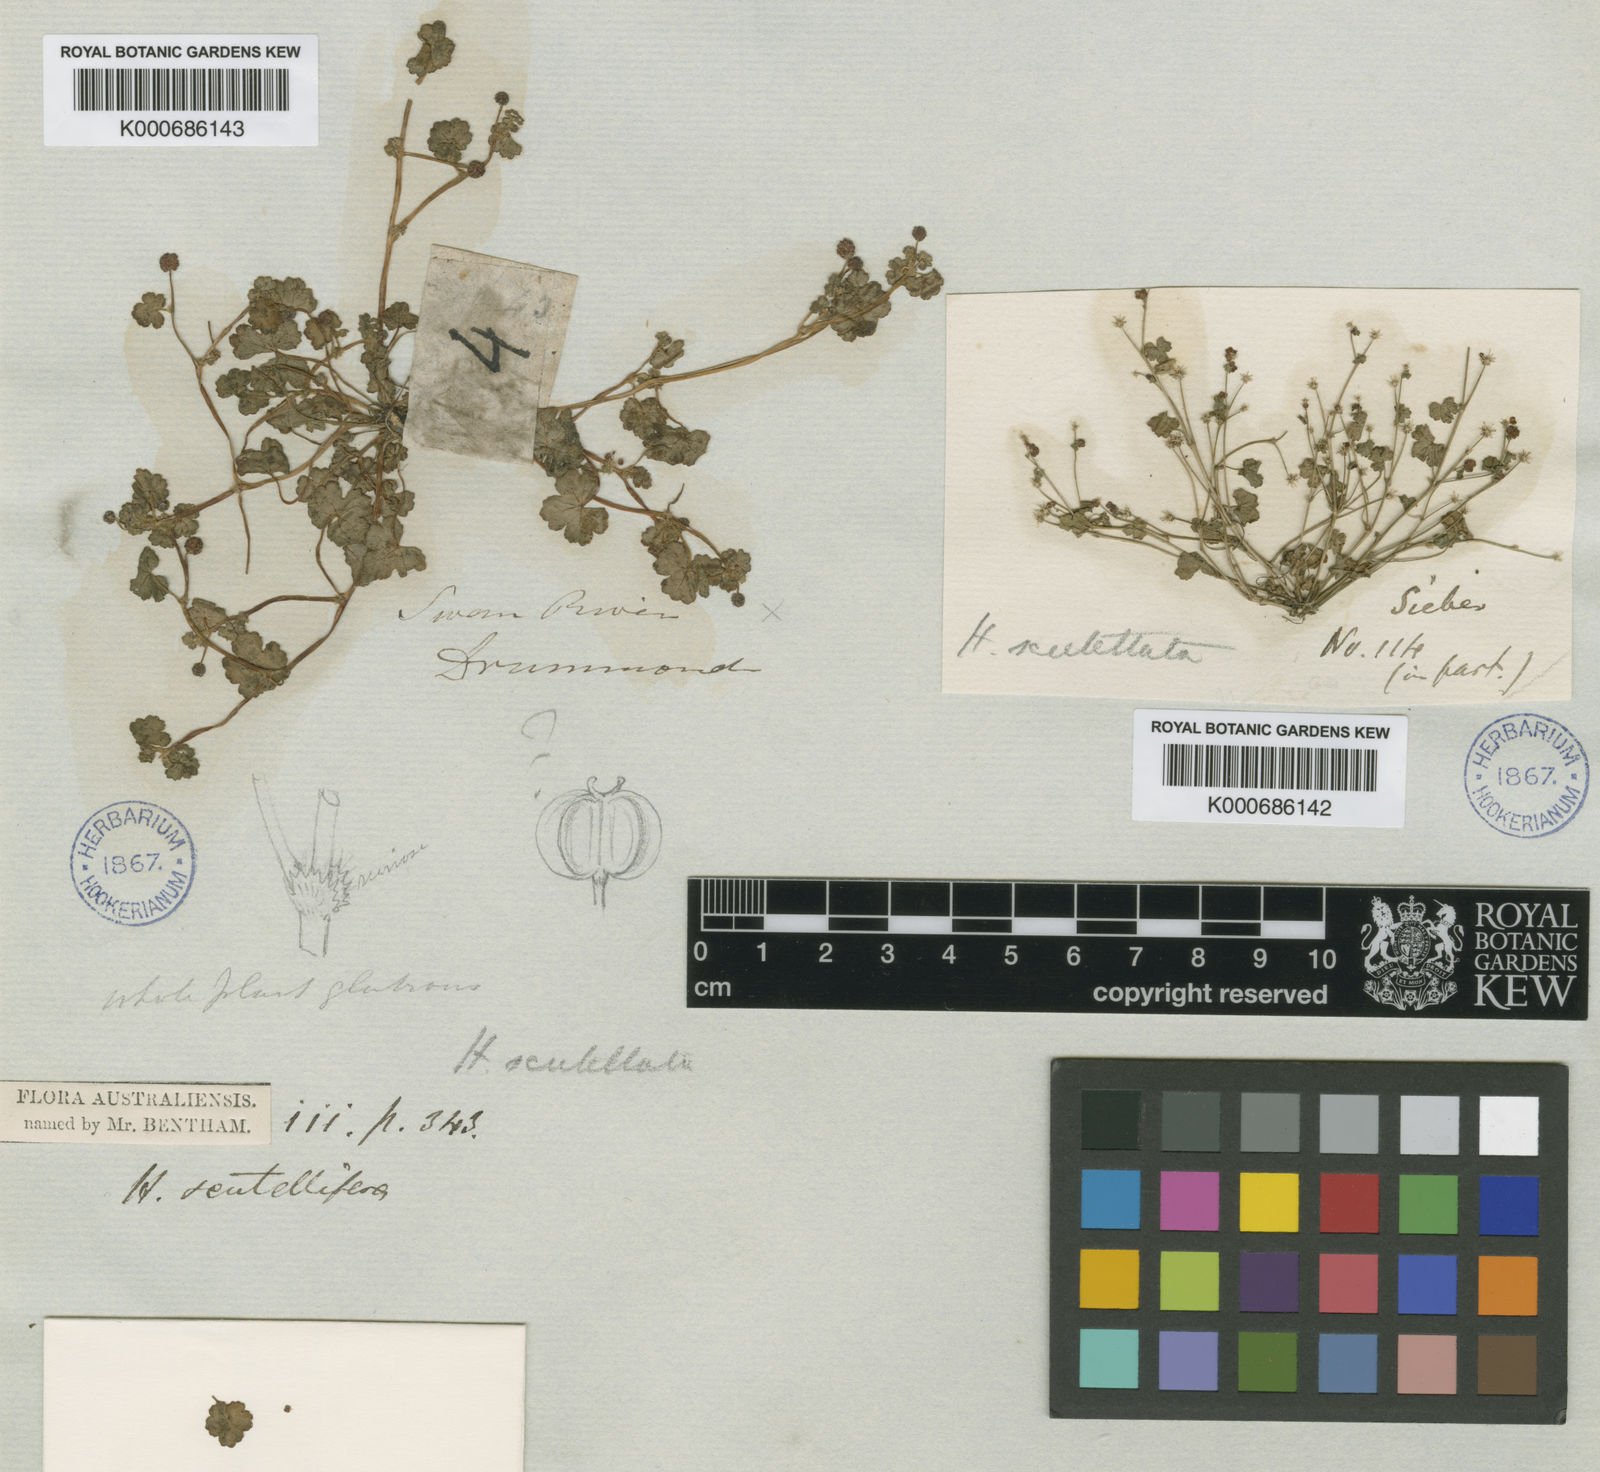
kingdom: Plantae
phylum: Tracheophyta
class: Magnoliopsida
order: Apiales
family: Araliaceae
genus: Hydrocotyle
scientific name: Hydrocotyle scutellifera
